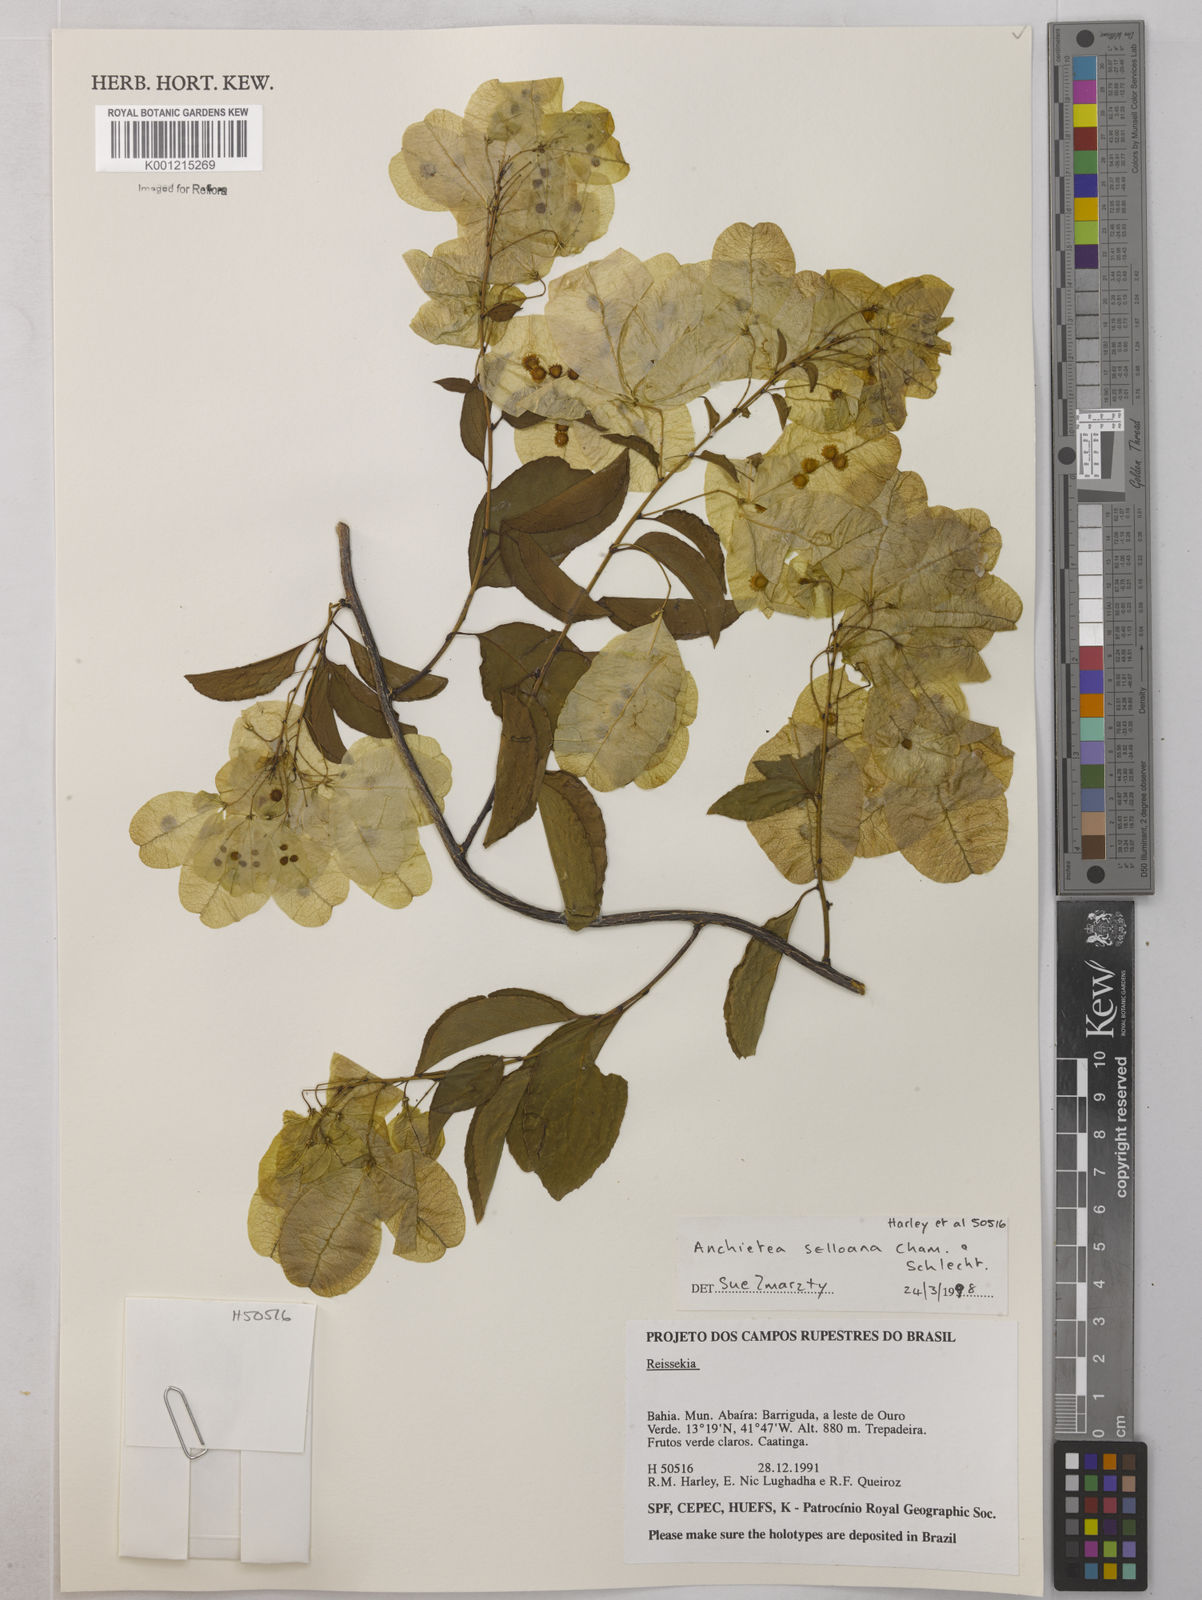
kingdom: Plantae
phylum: Tracheophyta
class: Magnoliopsida
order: Malpighiales
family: Violaceae
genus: Anchietea
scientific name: Anchietea sellowiana
